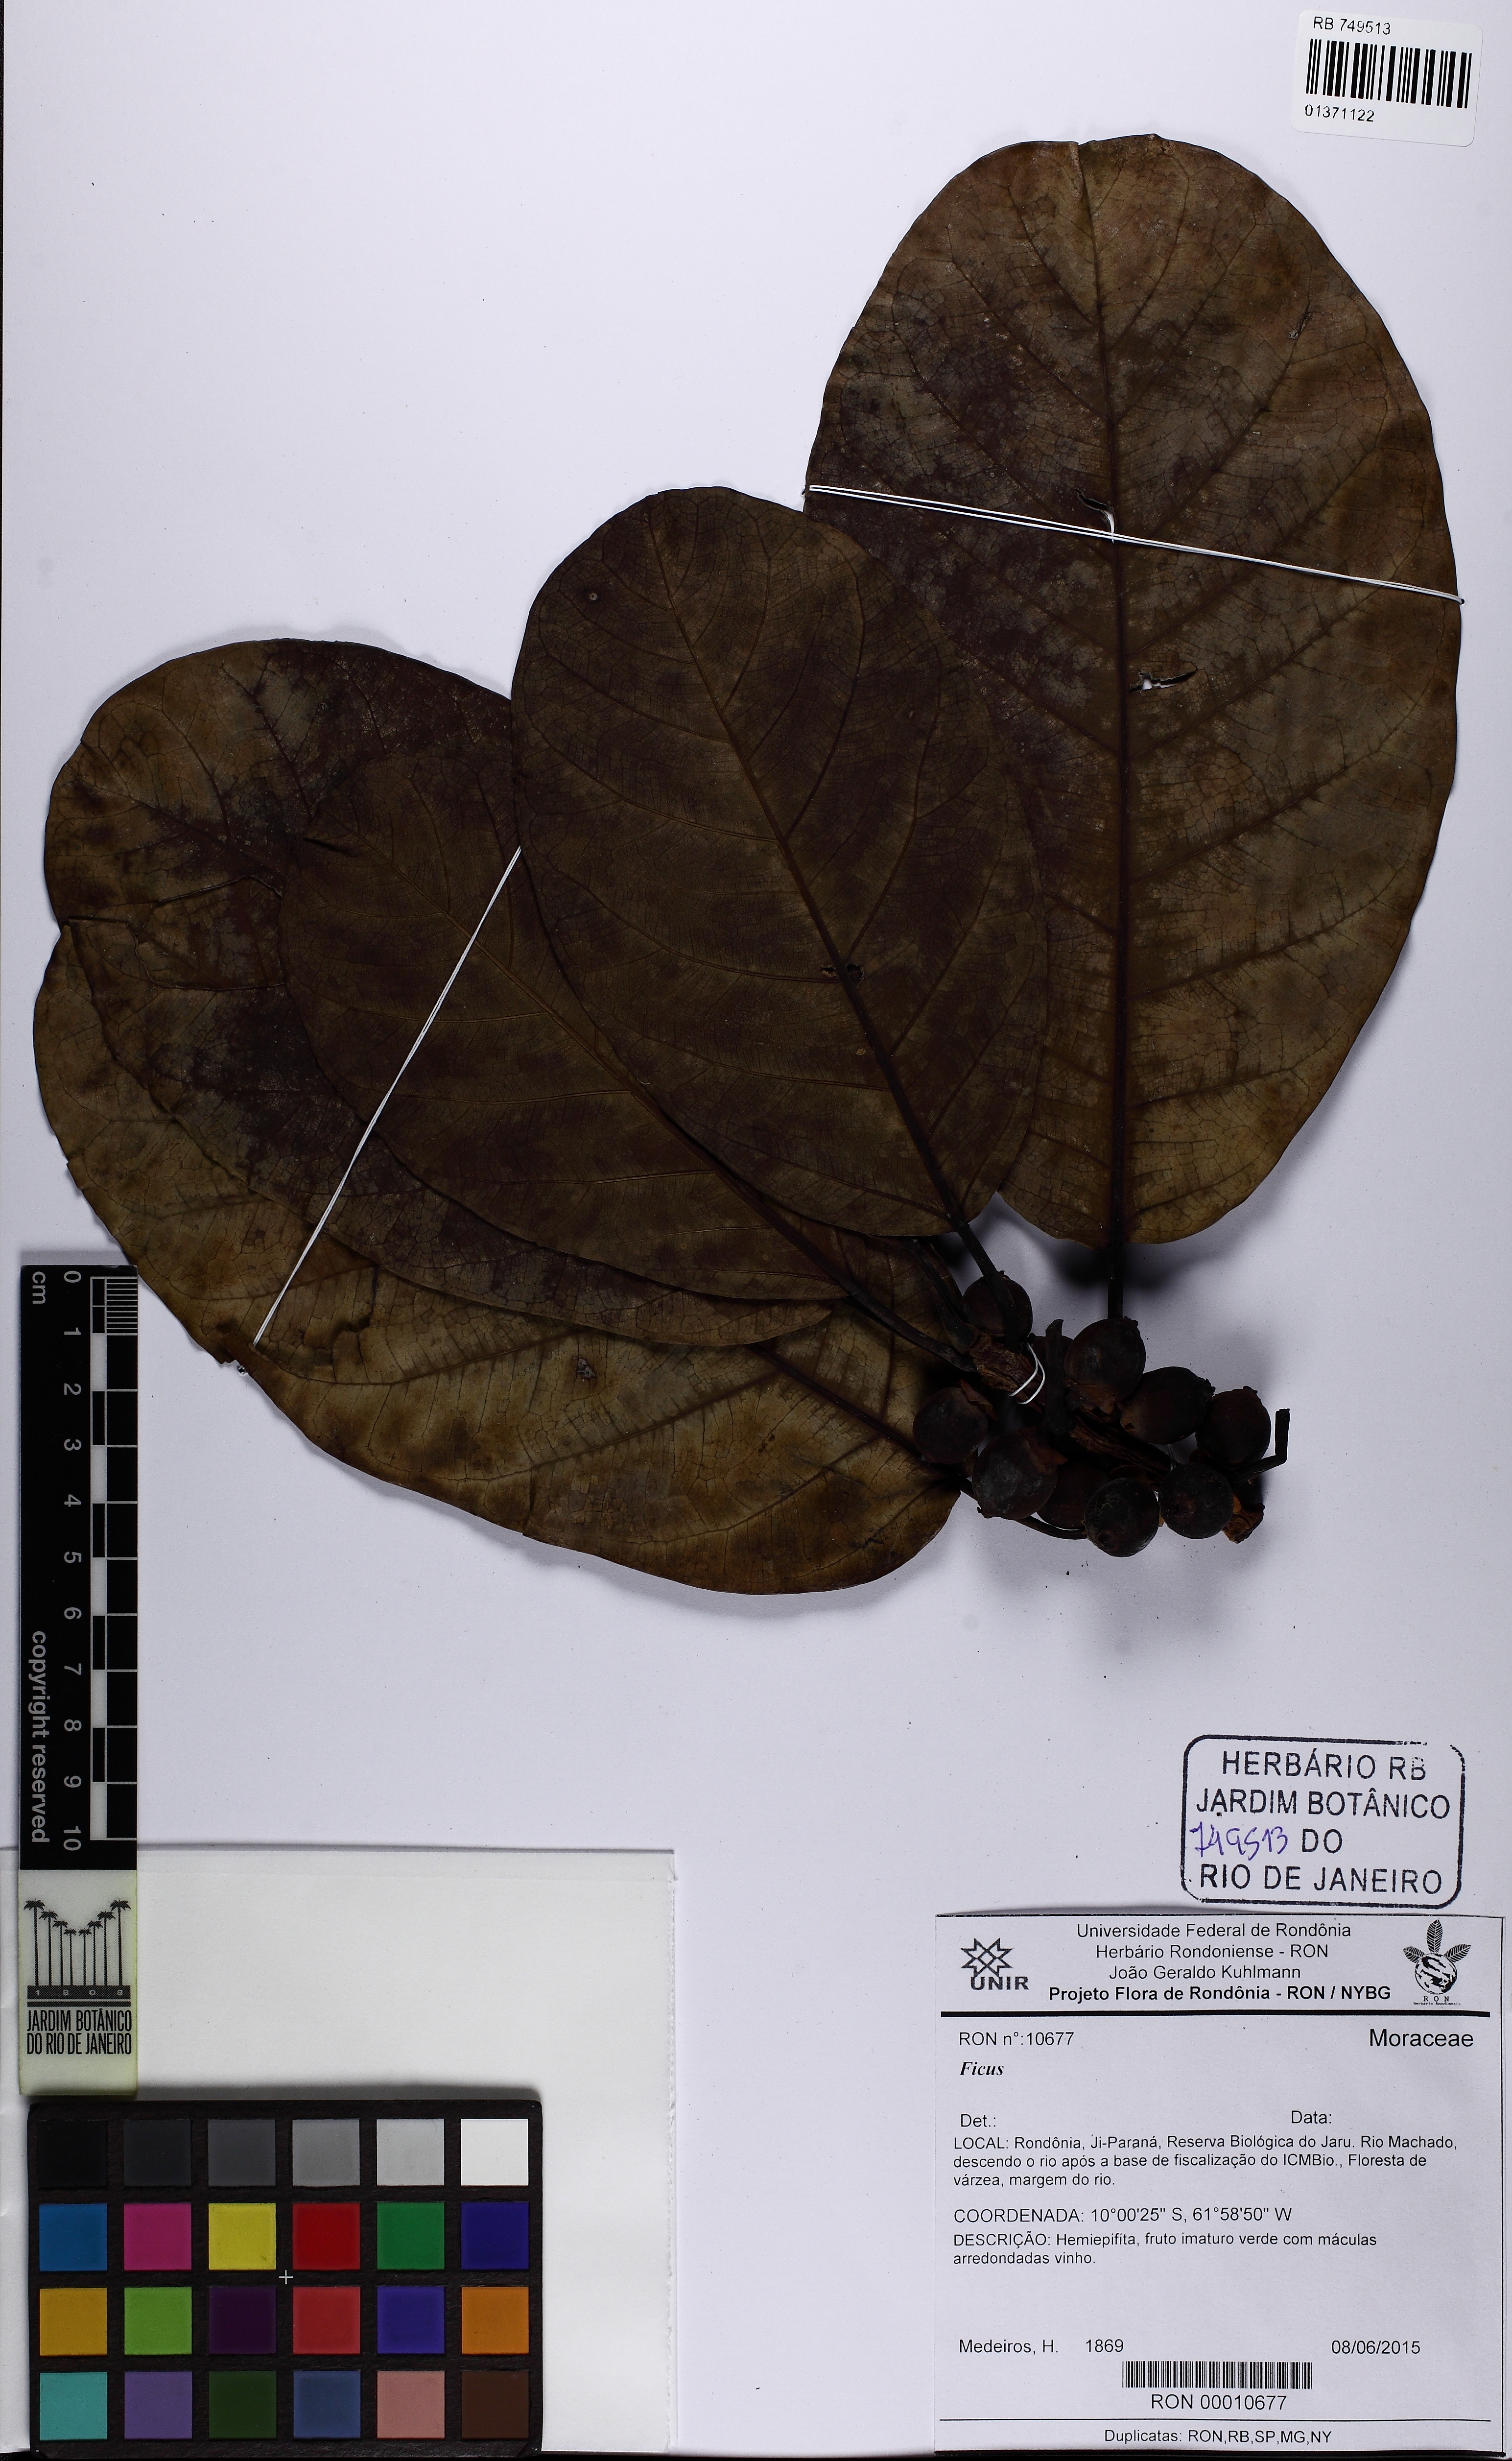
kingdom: Plantae
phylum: Tracheophyta
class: Magnoliopsida
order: Rosales
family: Moraceae
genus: Ficus
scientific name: Ficus obtusifolia
